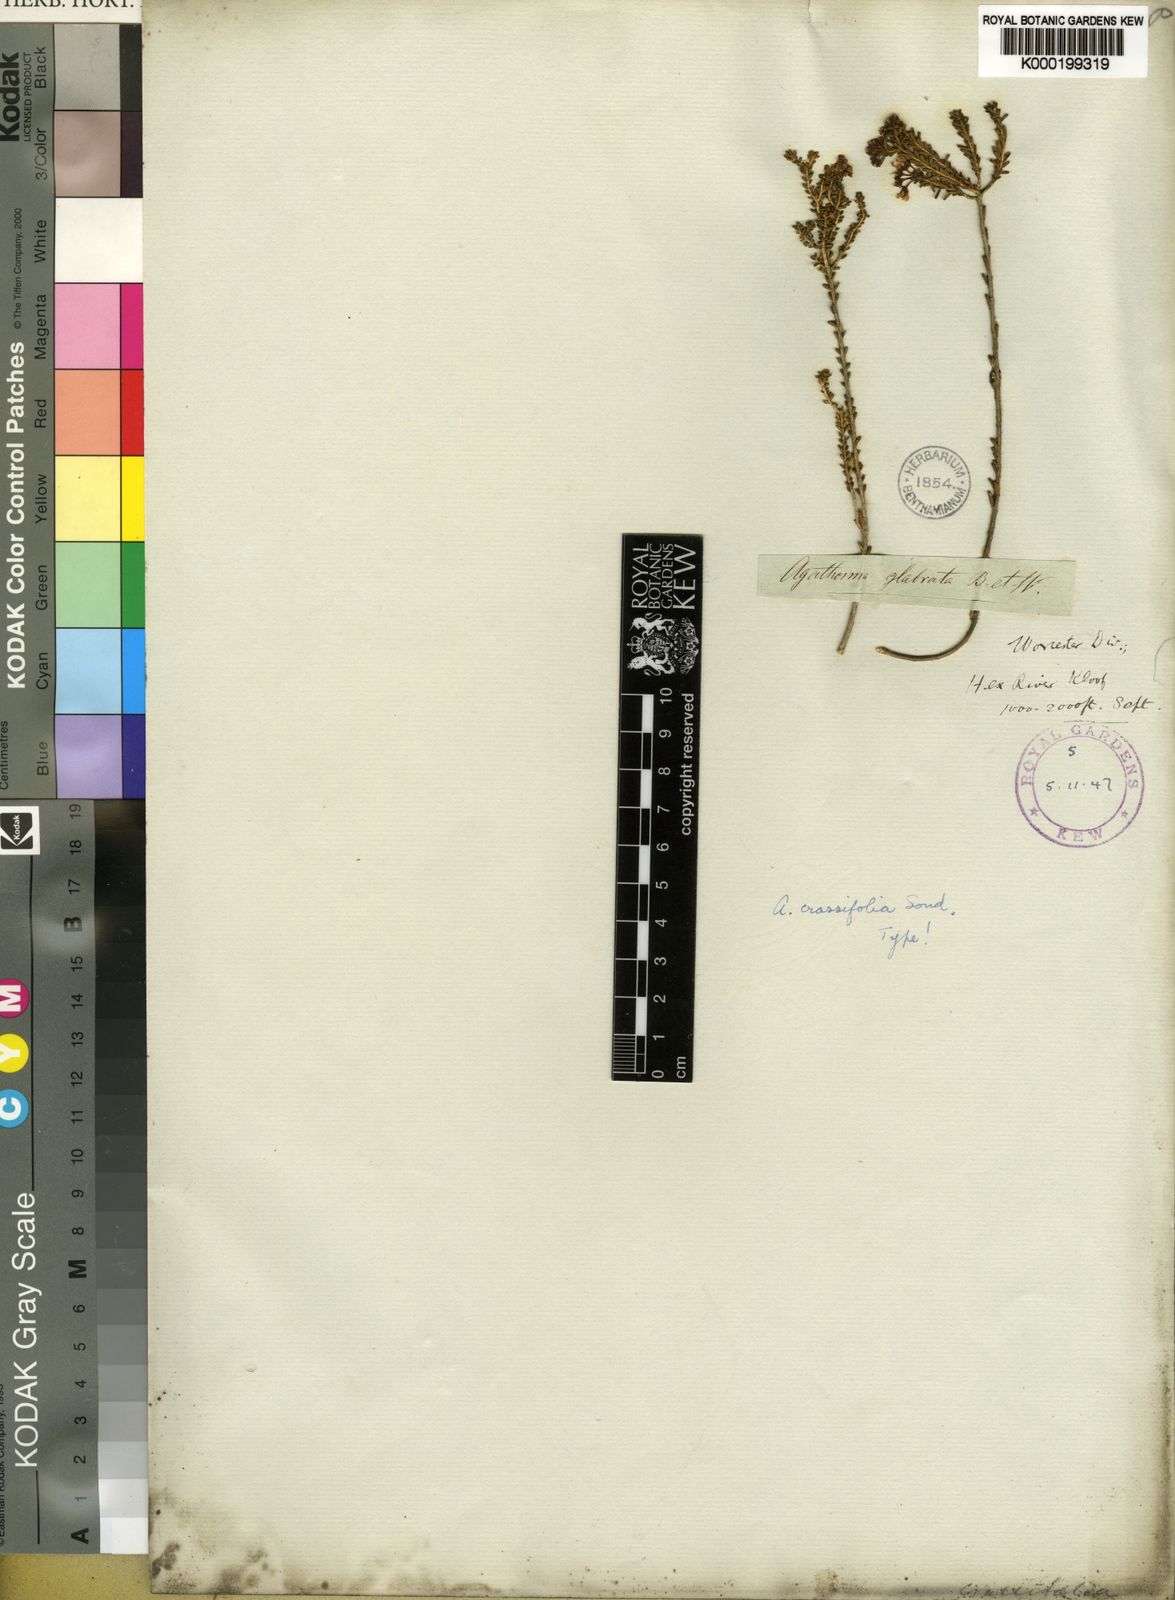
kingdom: Plantae
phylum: Tracheophyta
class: Magnoliopsida
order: Sapindales
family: Rutaceae
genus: Agathosma
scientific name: Agathosma crassifolia
